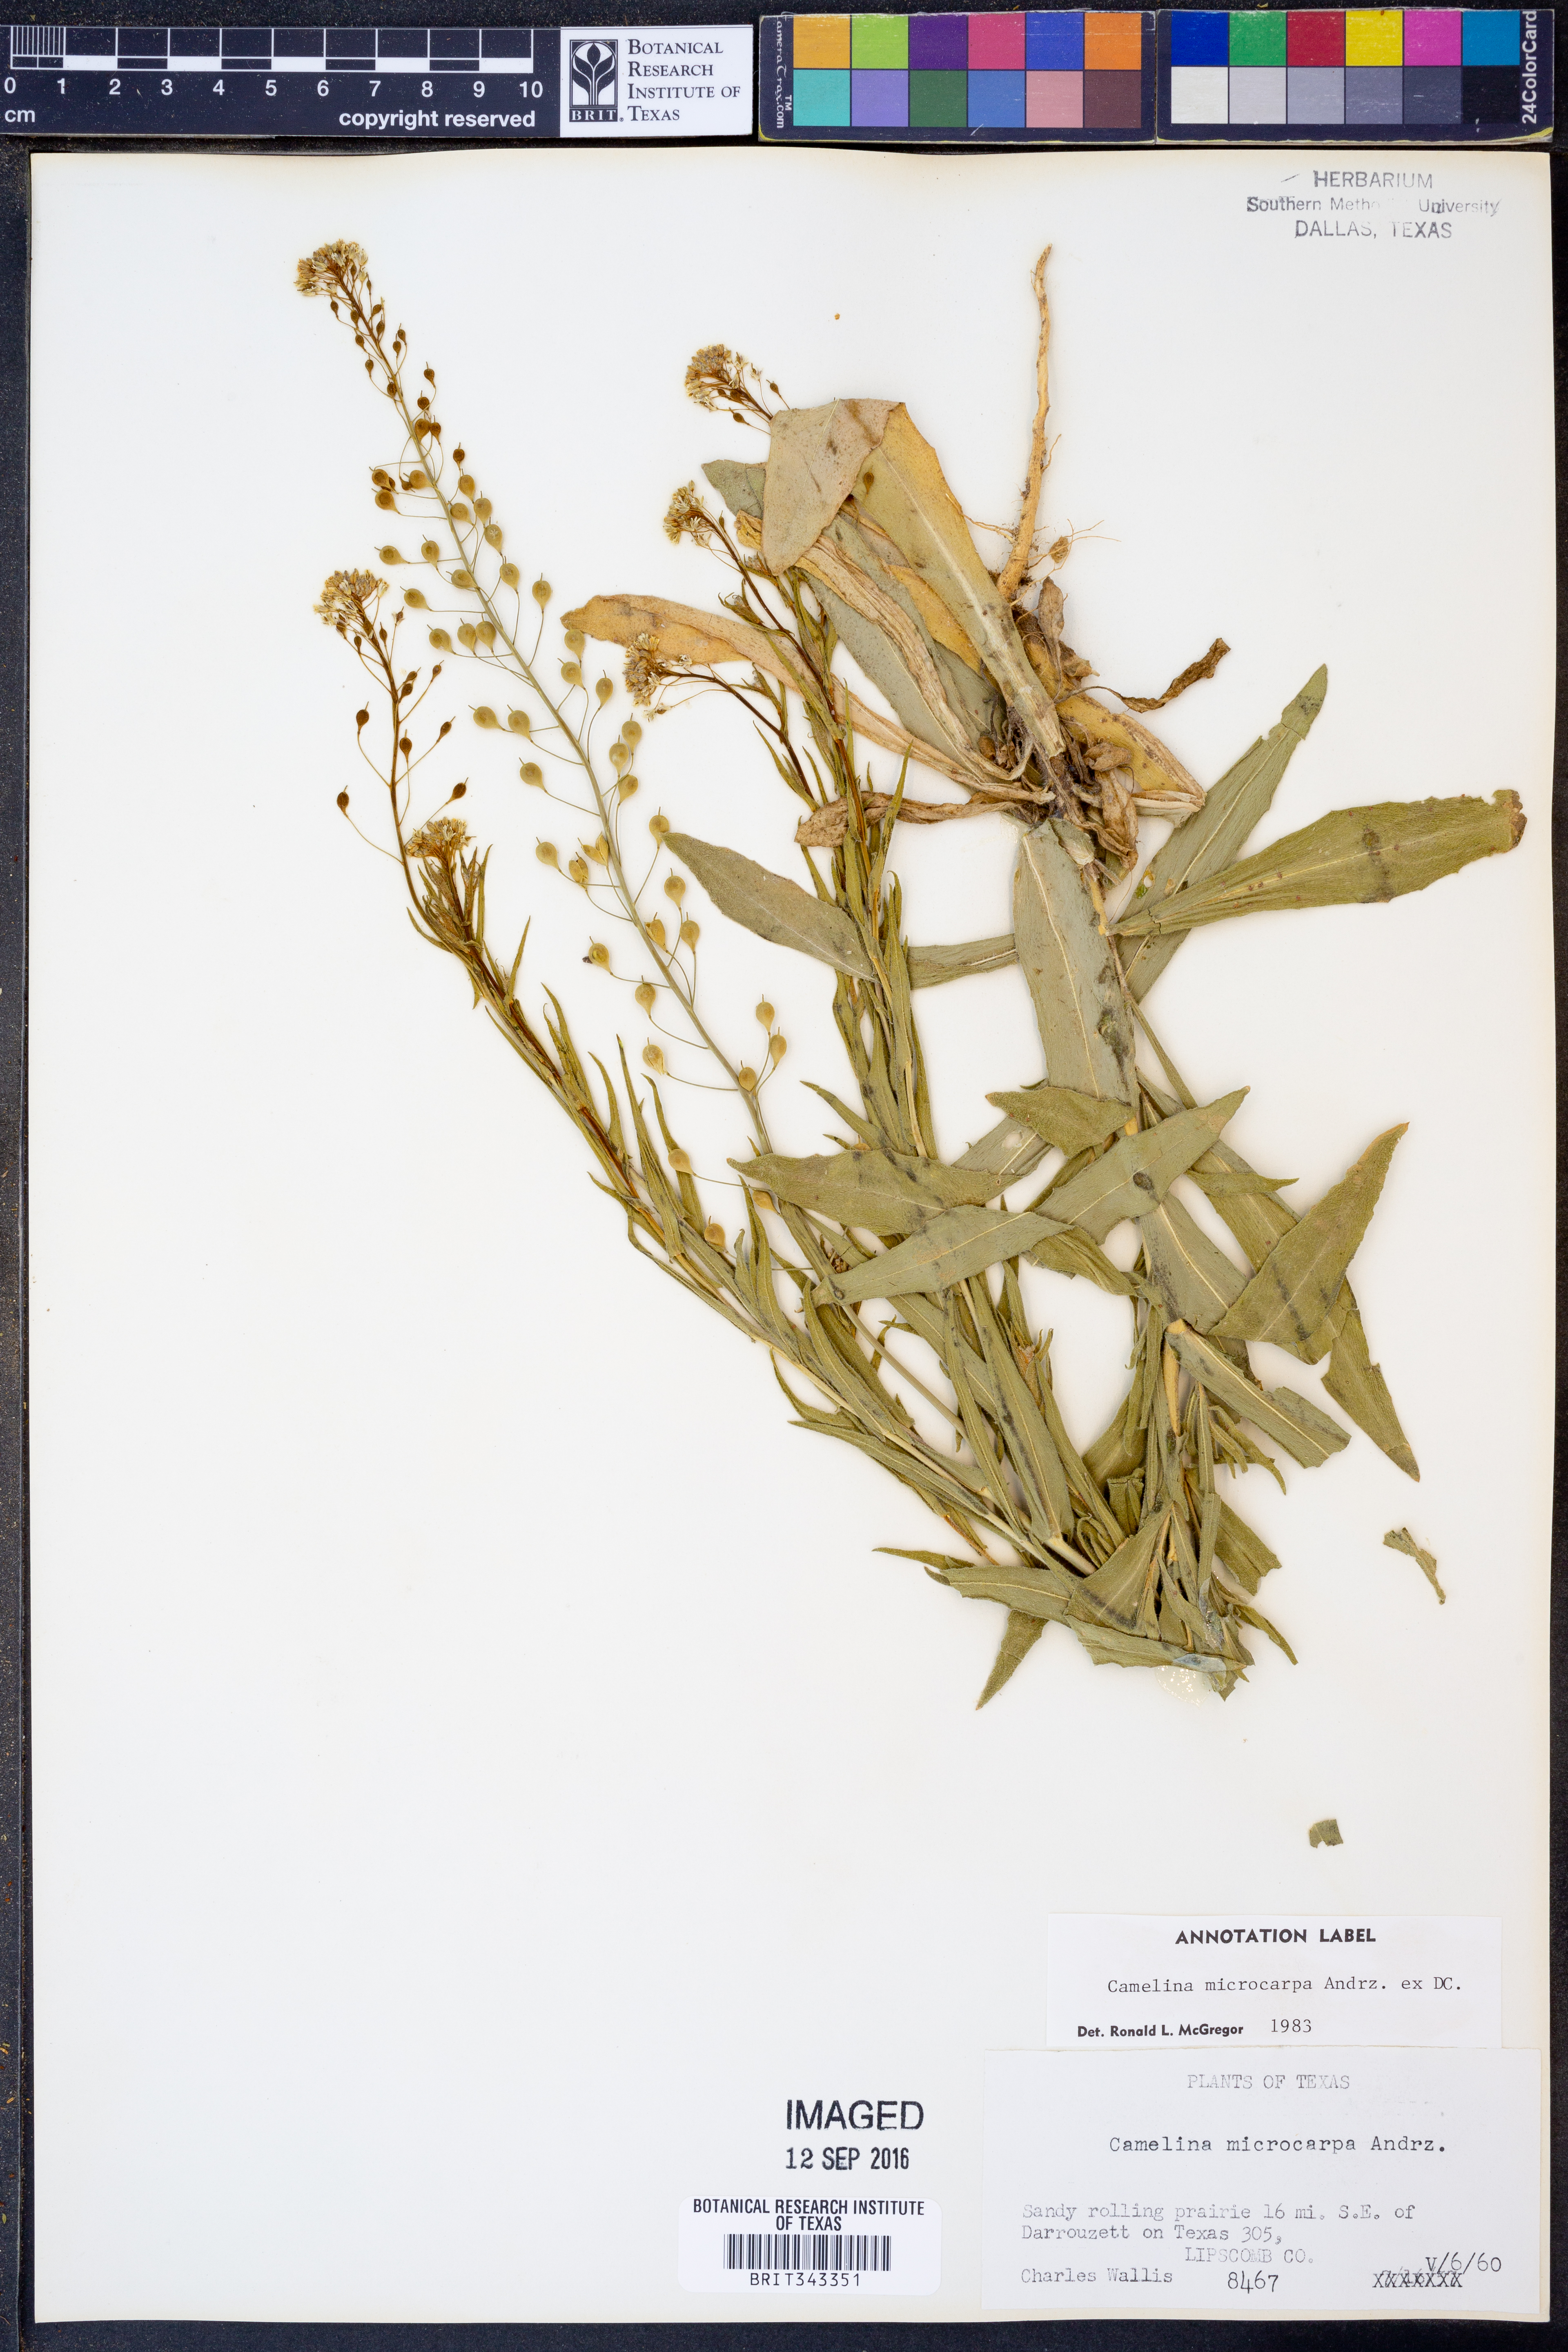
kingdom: Plantae
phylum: Tracheophyta
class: Magnoliopsida
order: Brassicales
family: Brassicaceae
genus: Camelina
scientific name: Camelina microcarpa
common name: Lesser gold-of-pleasure
